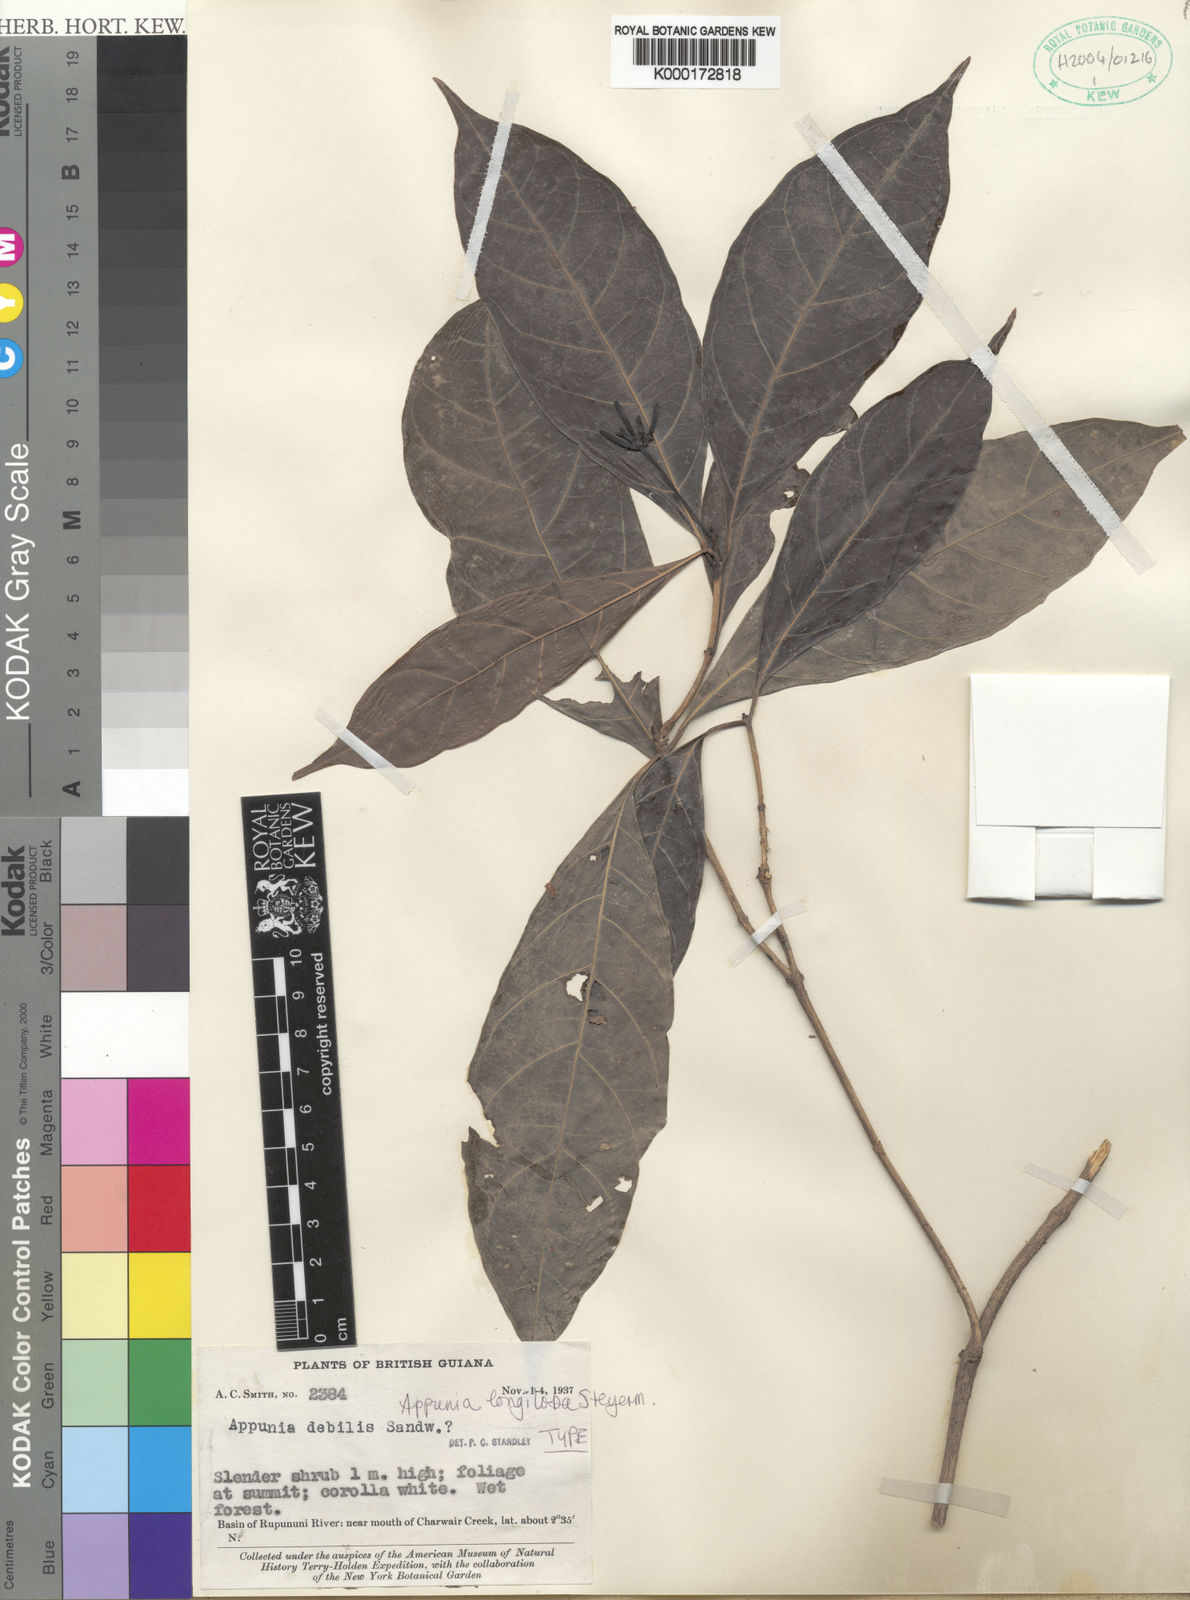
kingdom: Plantae
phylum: Tracheophyta
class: Magnoliopsida
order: Gentianales
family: Rubiaceae
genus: Appunia
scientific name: Appunia
